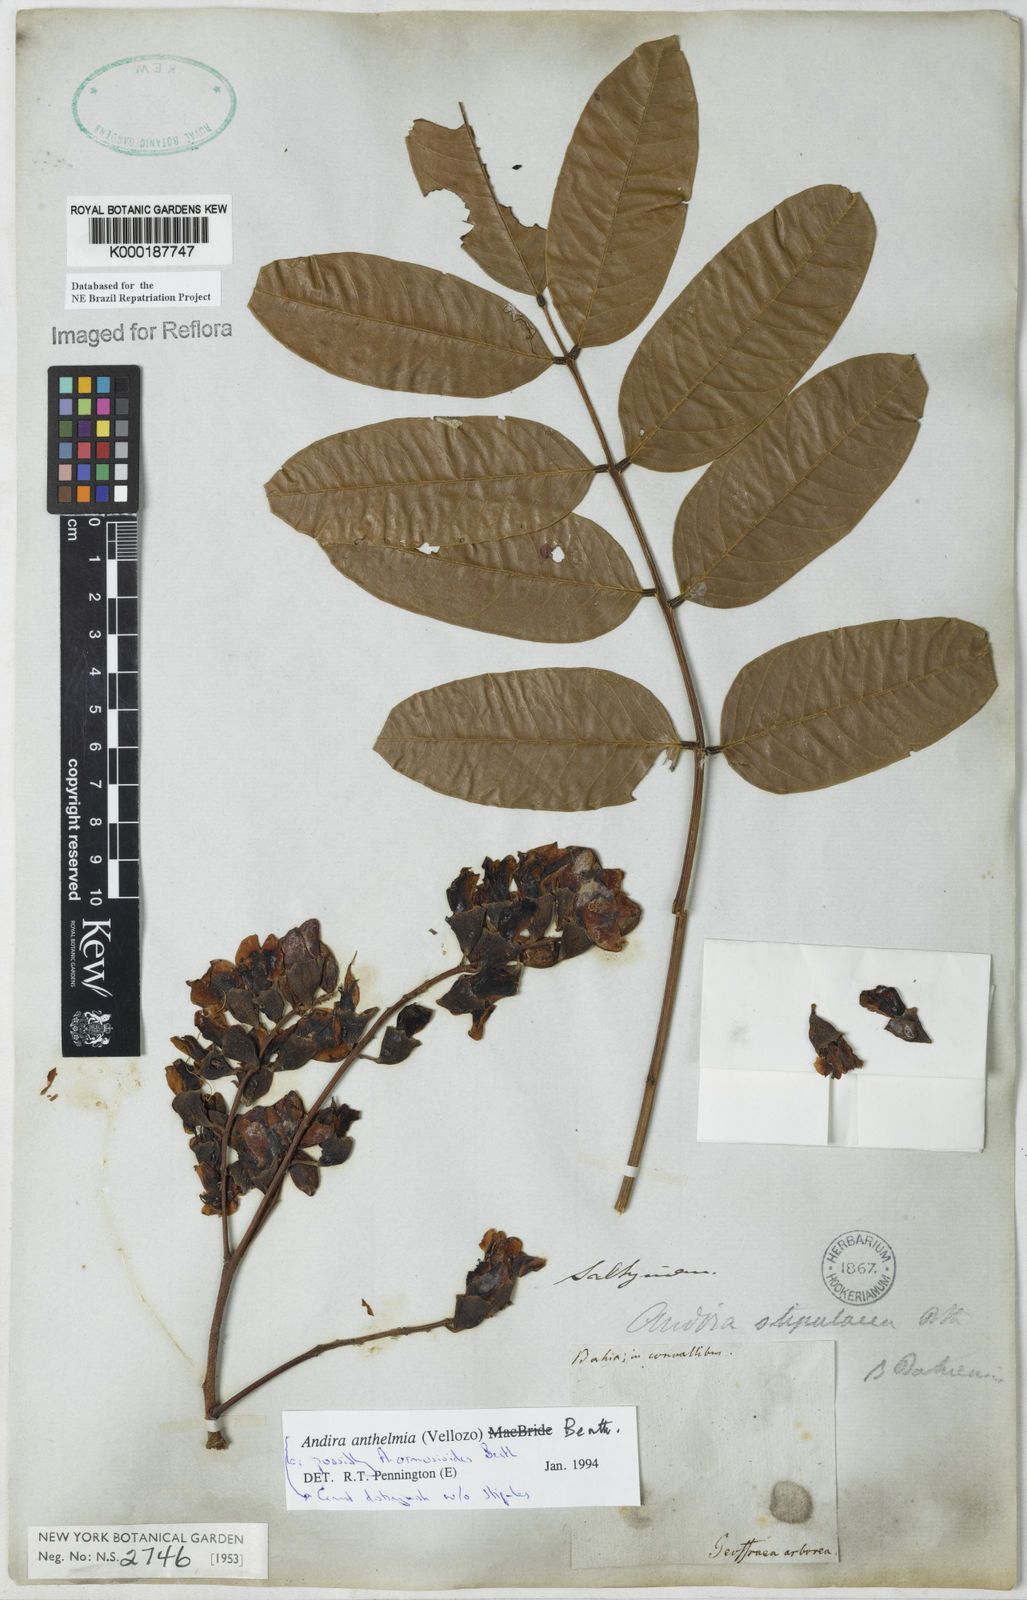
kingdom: Plantae
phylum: Tracheophyta
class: Magnoliopsida
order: Fabales
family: Fabaceae
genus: Andira
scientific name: Andira
